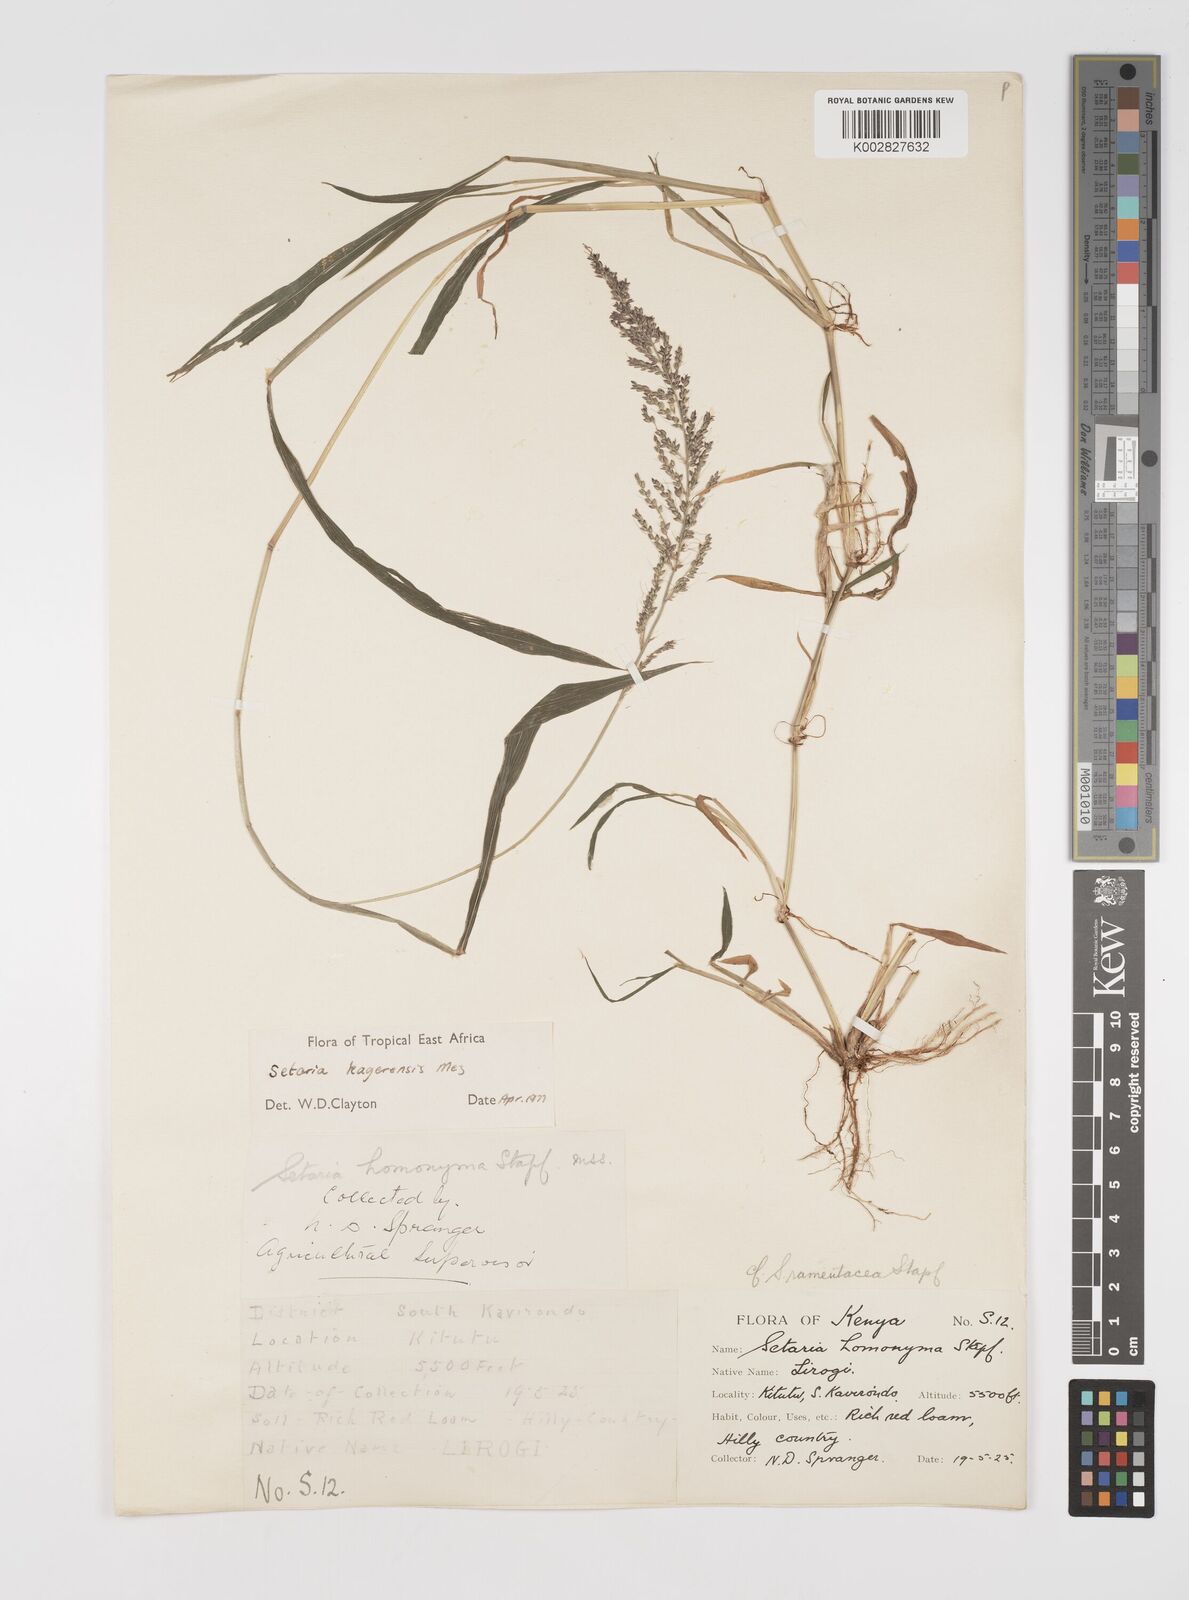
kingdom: Plantae
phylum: Tracheophyta
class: Liliopsida
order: Poales
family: Poaceae
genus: Setaria
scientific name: Setaria kagerensis
